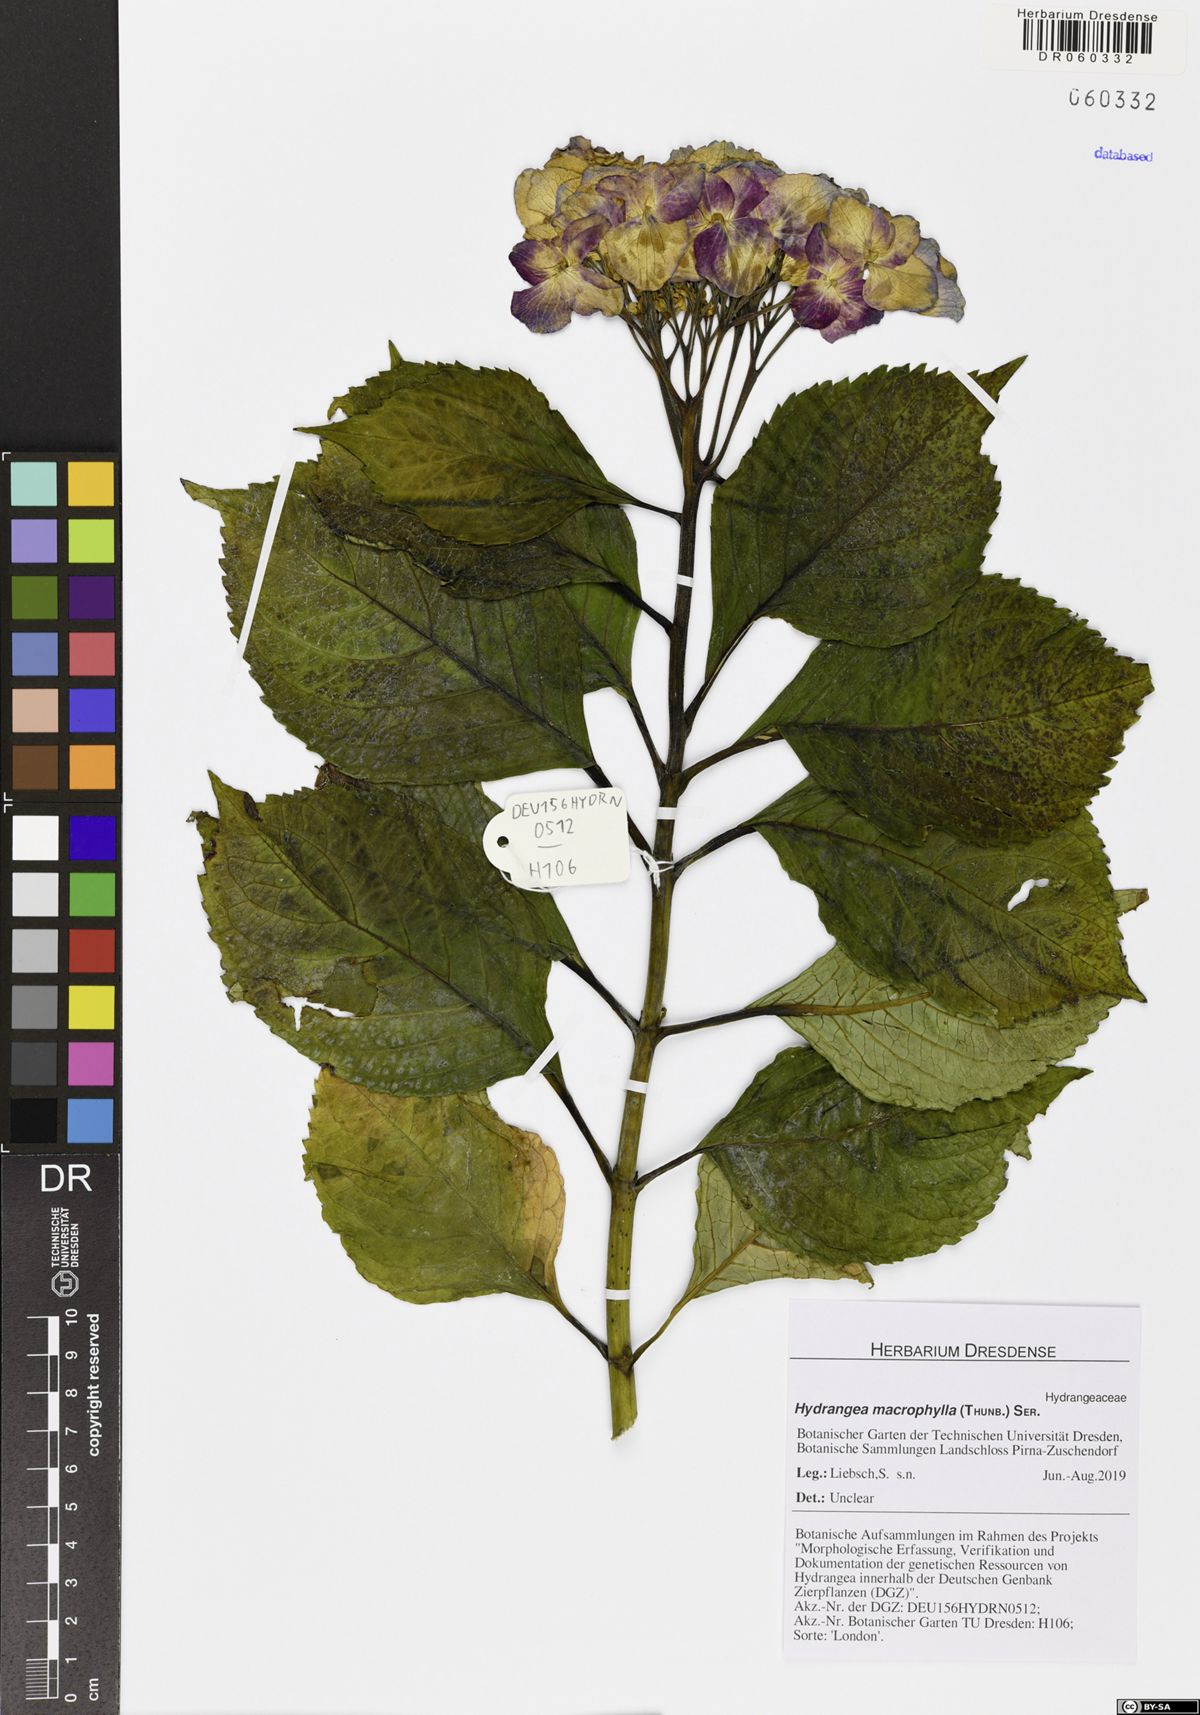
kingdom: Plantae
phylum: Tracheophyta
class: Magnoliopsida
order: Cornales
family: Hydrangeaceae
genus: Hydrangea
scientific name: Hydrangea macrophylla
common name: Hydrangea
